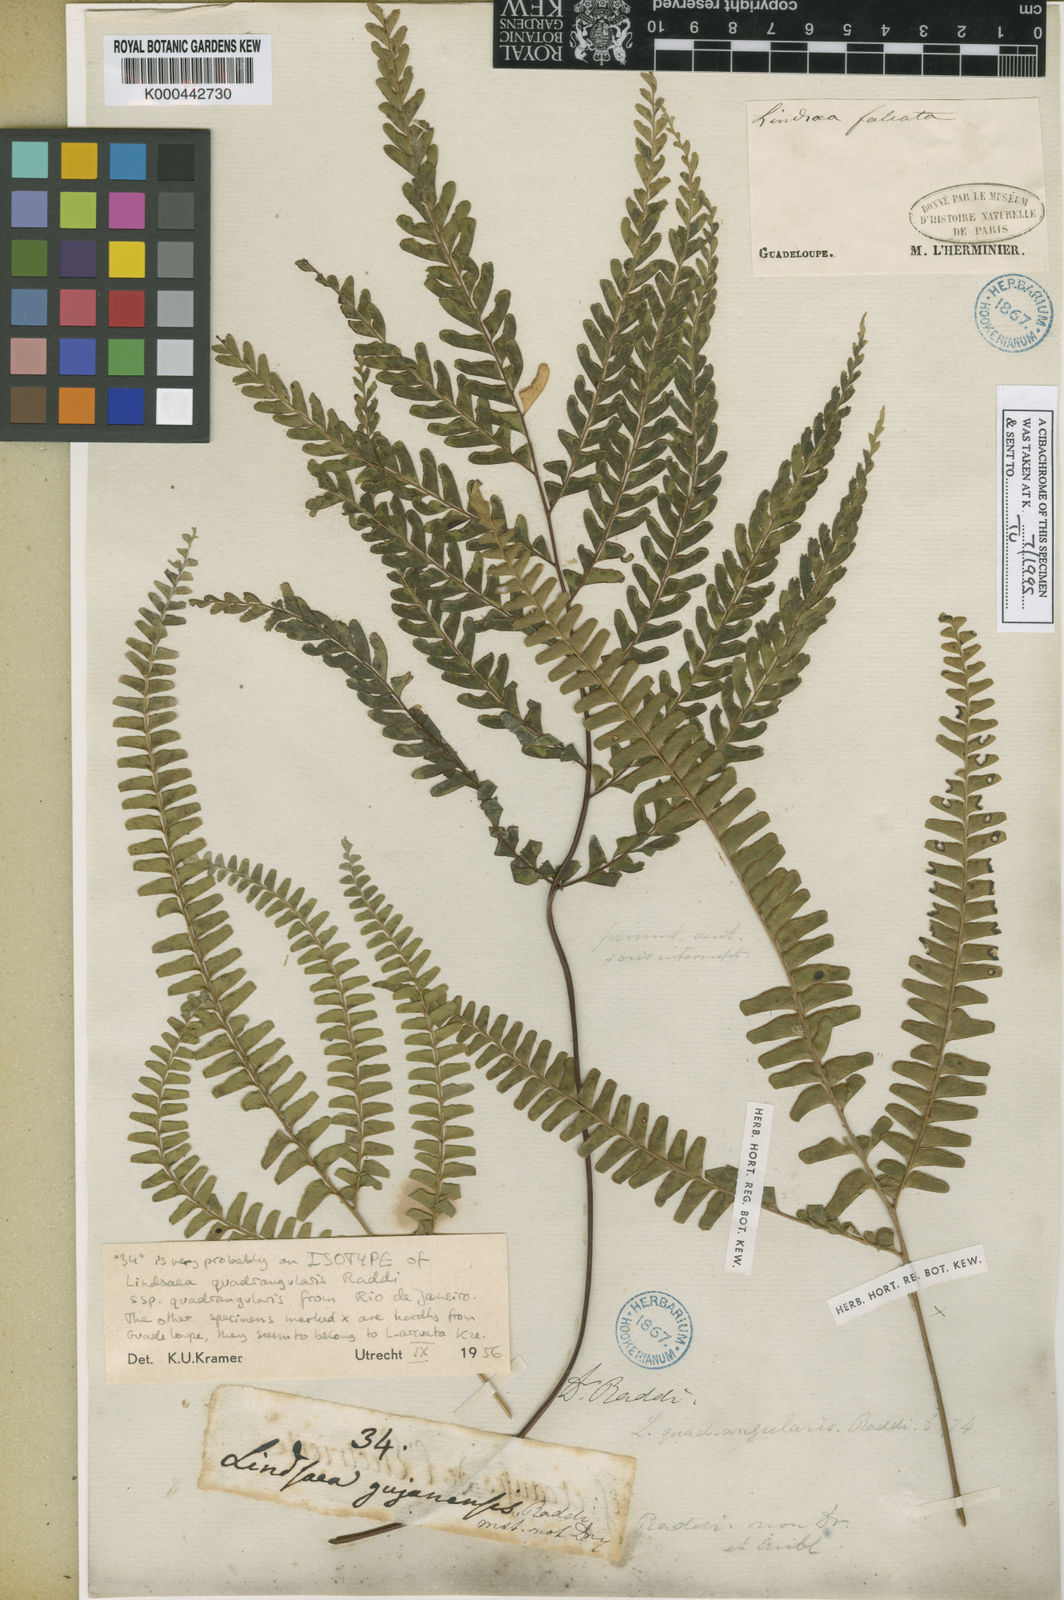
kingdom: Plantae
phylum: Tracheophyta
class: Polypodiopsida
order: Polypodiales
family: Lindsaeaceae
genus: Lindsaea
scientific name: Lindsaea quadrangularis
